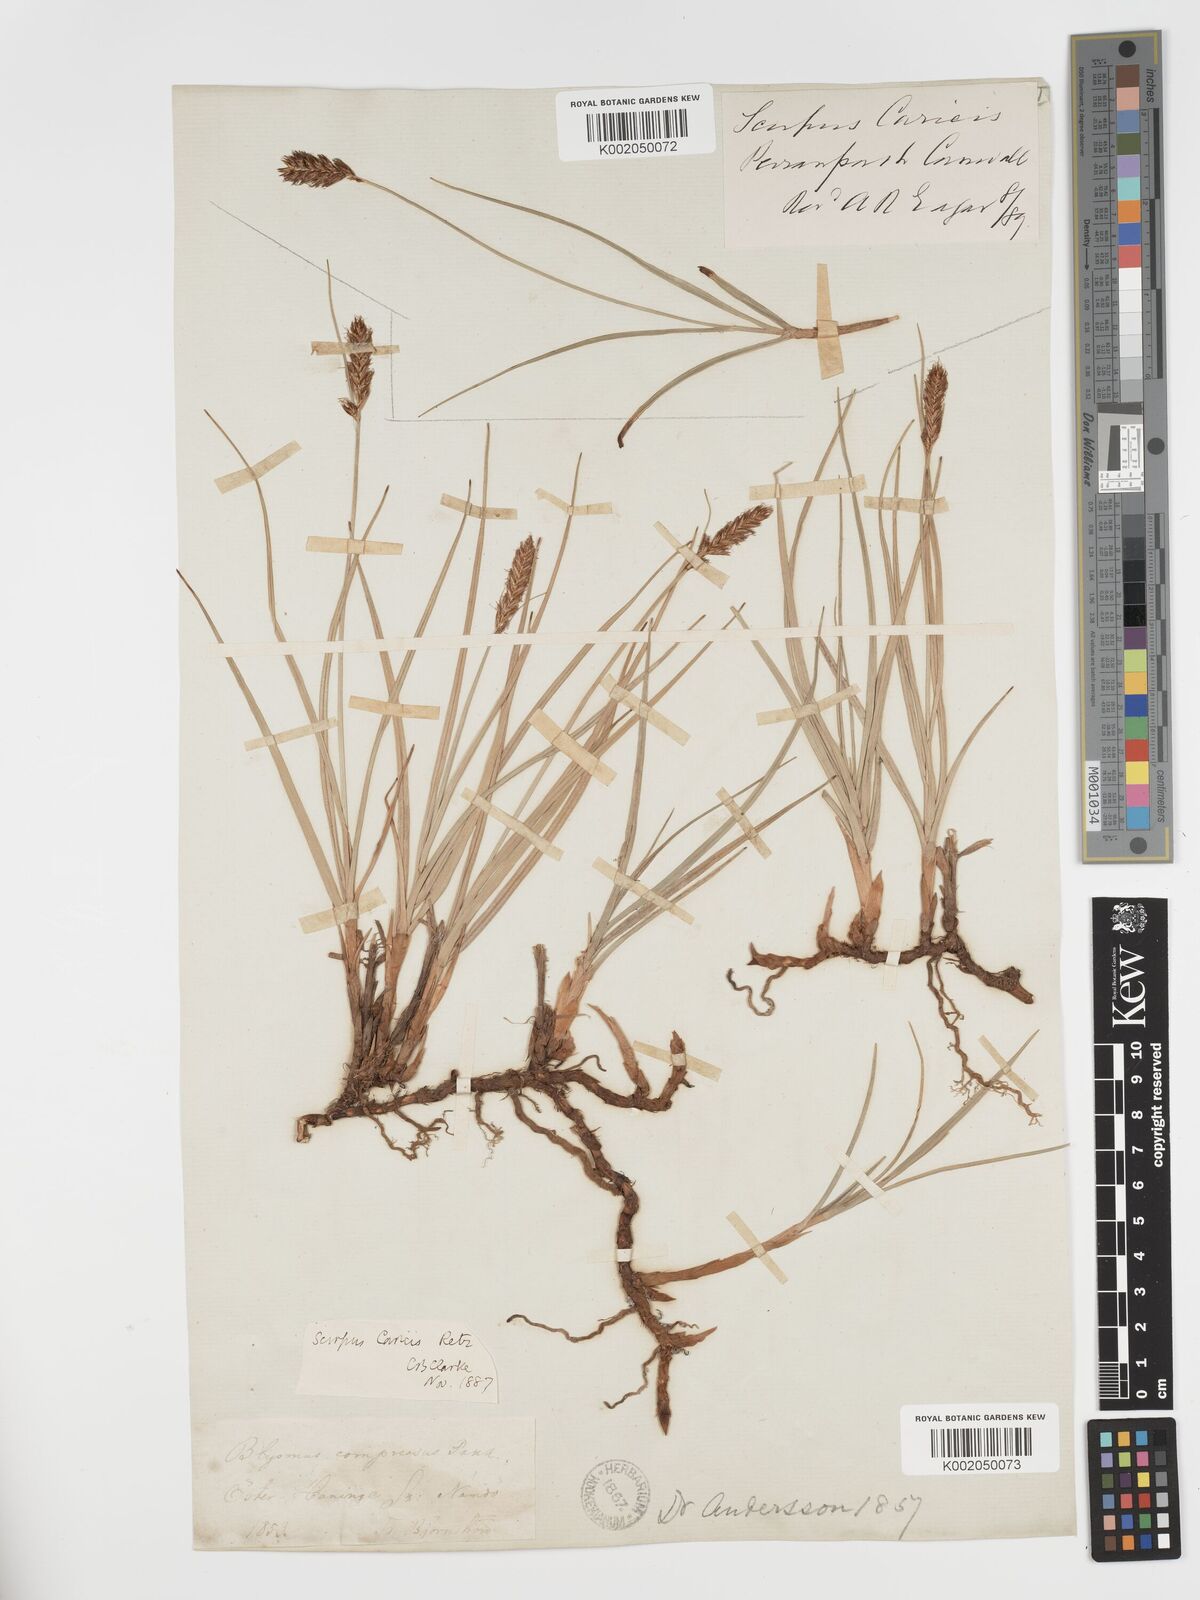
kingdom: Plantae
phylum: Tracheophyta
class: Liliopsida
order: Poales
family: Cyperaceae
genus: Blysmus
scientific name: Blysmus compressus
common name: Flat-sedge
